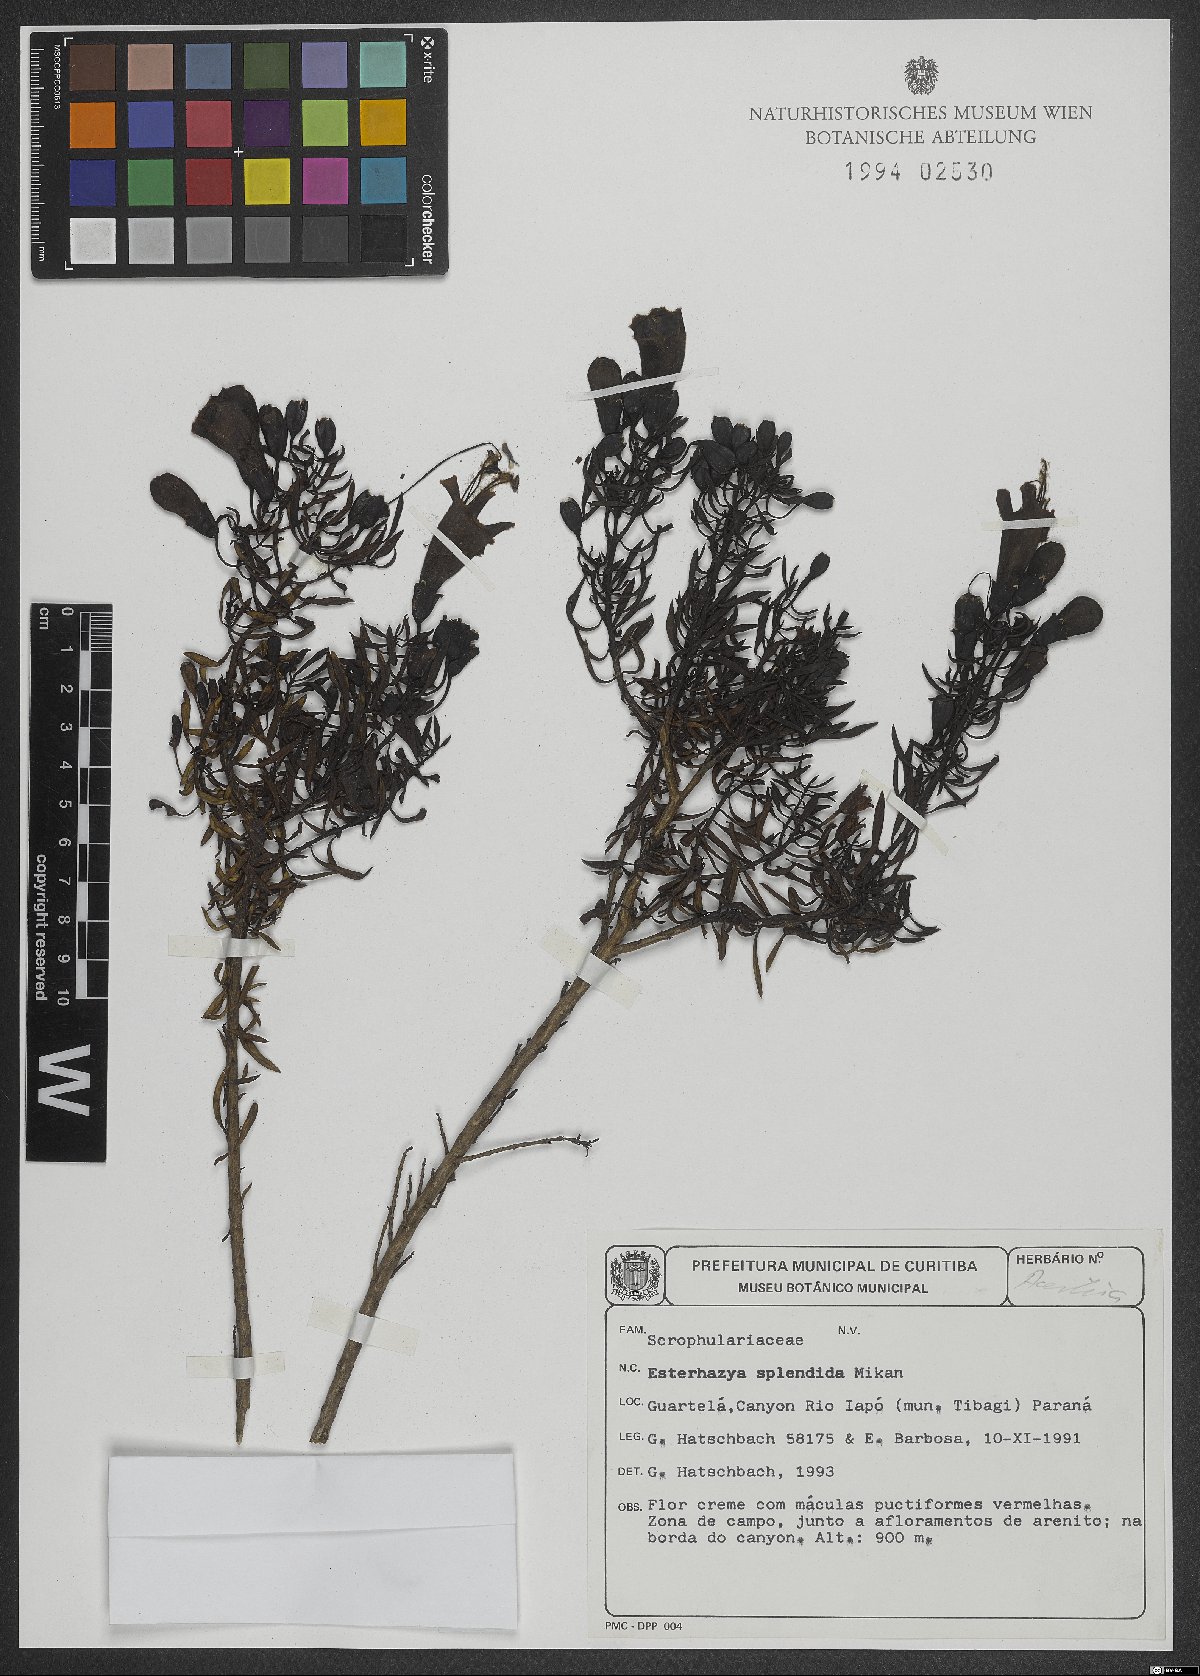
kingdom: Plantae
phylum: Tracheophyta
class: Magnoliopsida
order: Lamiales
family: Orobanchaceae
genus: Esterhazya
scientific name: Esterhazya splendida
